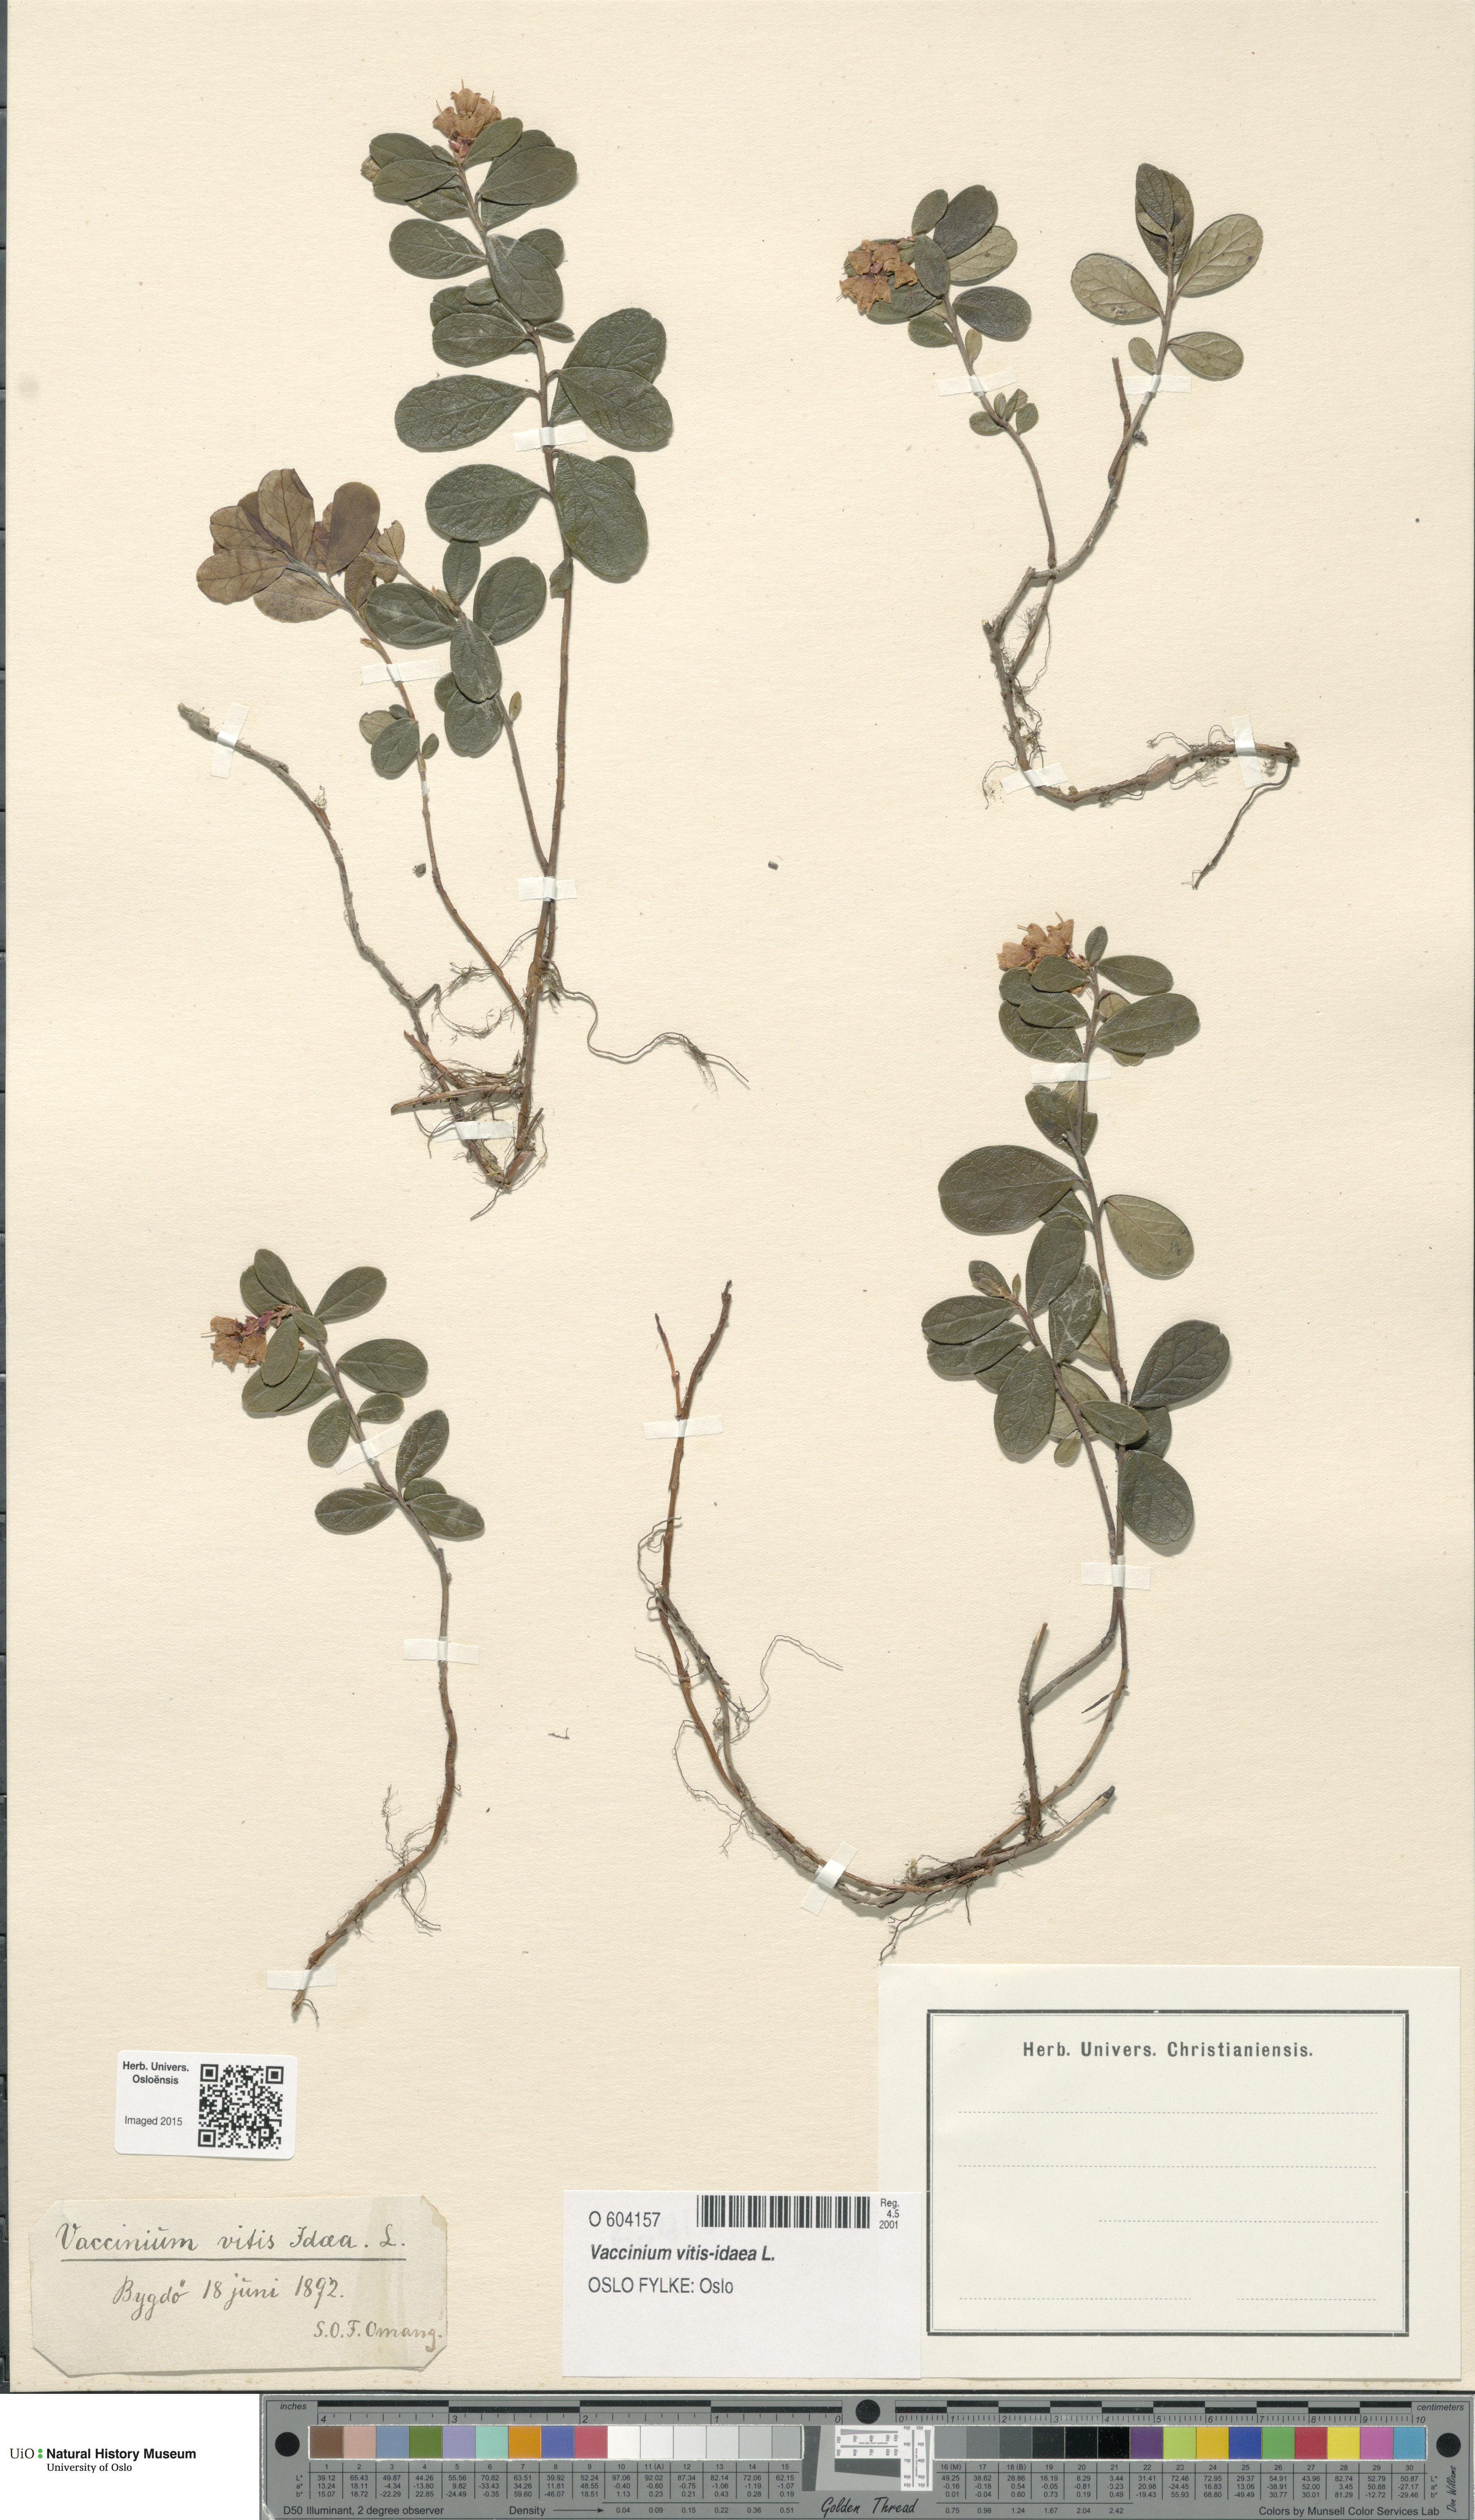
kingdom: Plantae
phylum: Tracheophyta
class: Magnoliopsida
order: Ericales
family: Ericaceae
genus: Vaccinium
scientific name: Vaccinium vitis-idaea
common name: Cowberry
